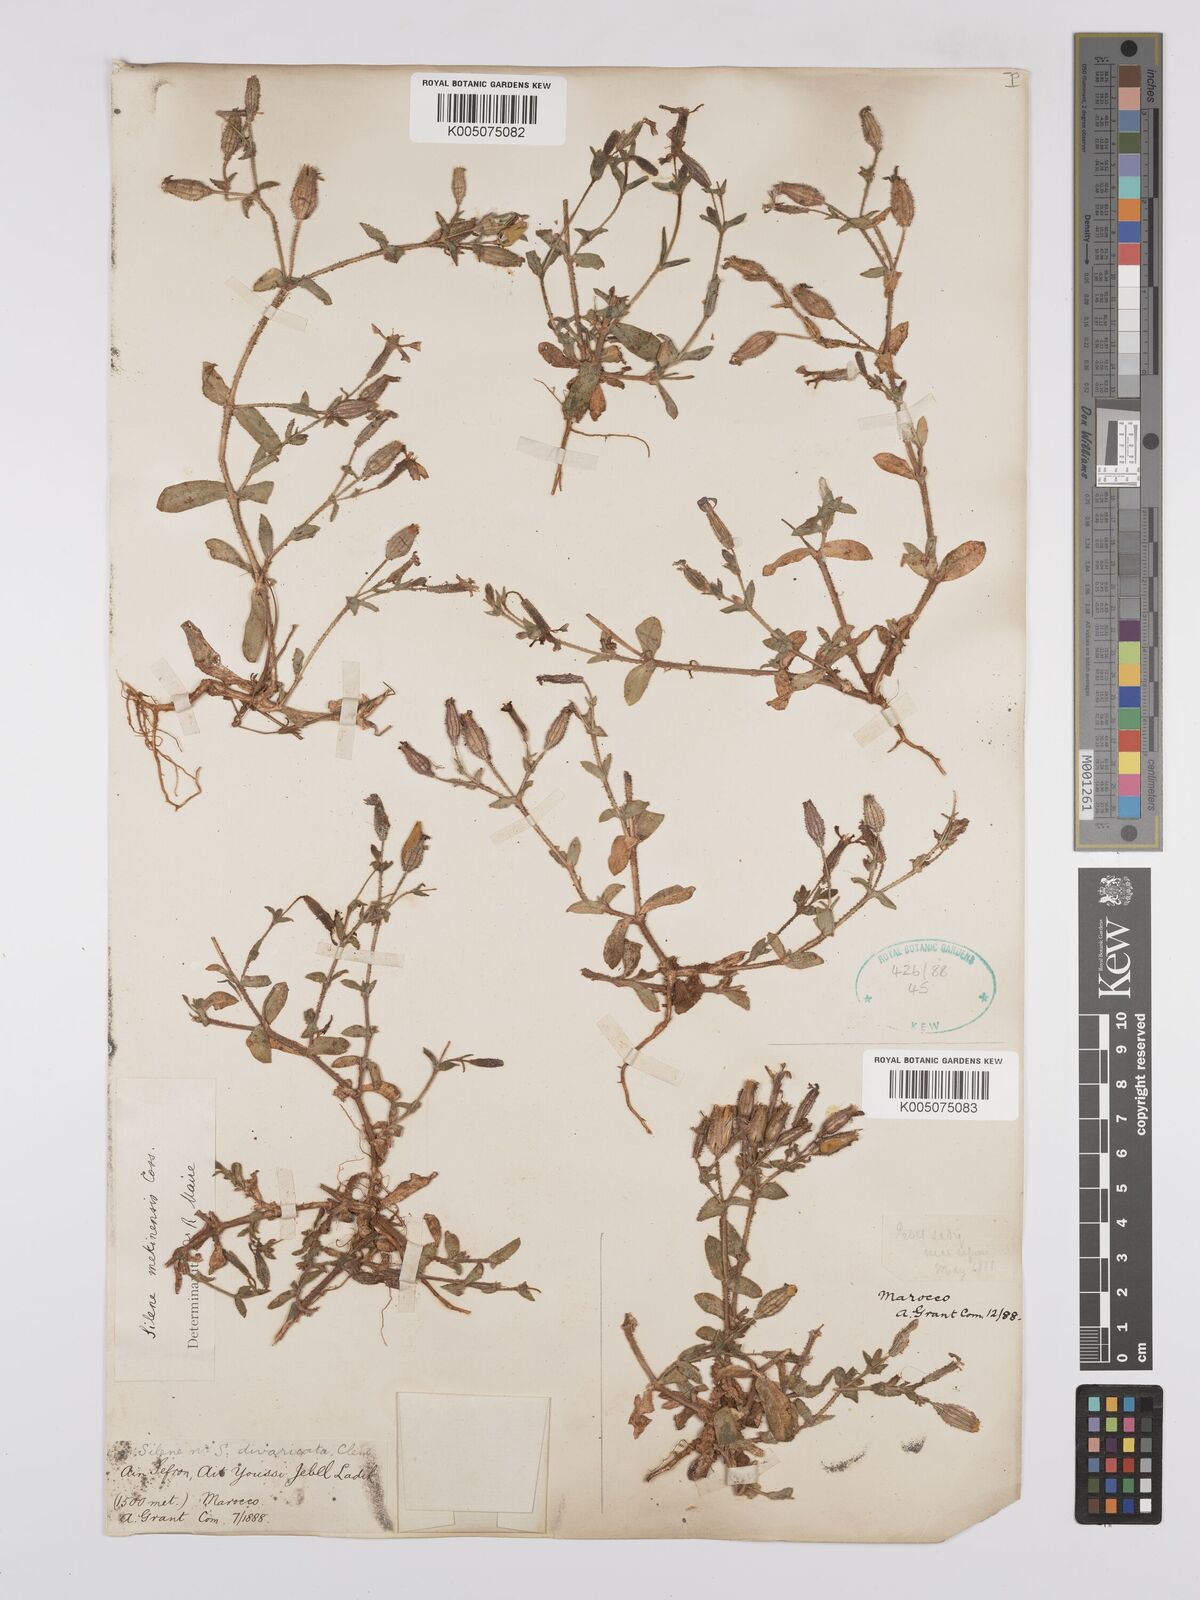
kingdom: Plantae
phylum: Tracheophyta
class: Magnoliopsida
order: Caryophyllales
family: Caryophyllaceae
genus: Silene
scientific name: Silene mekinensis
